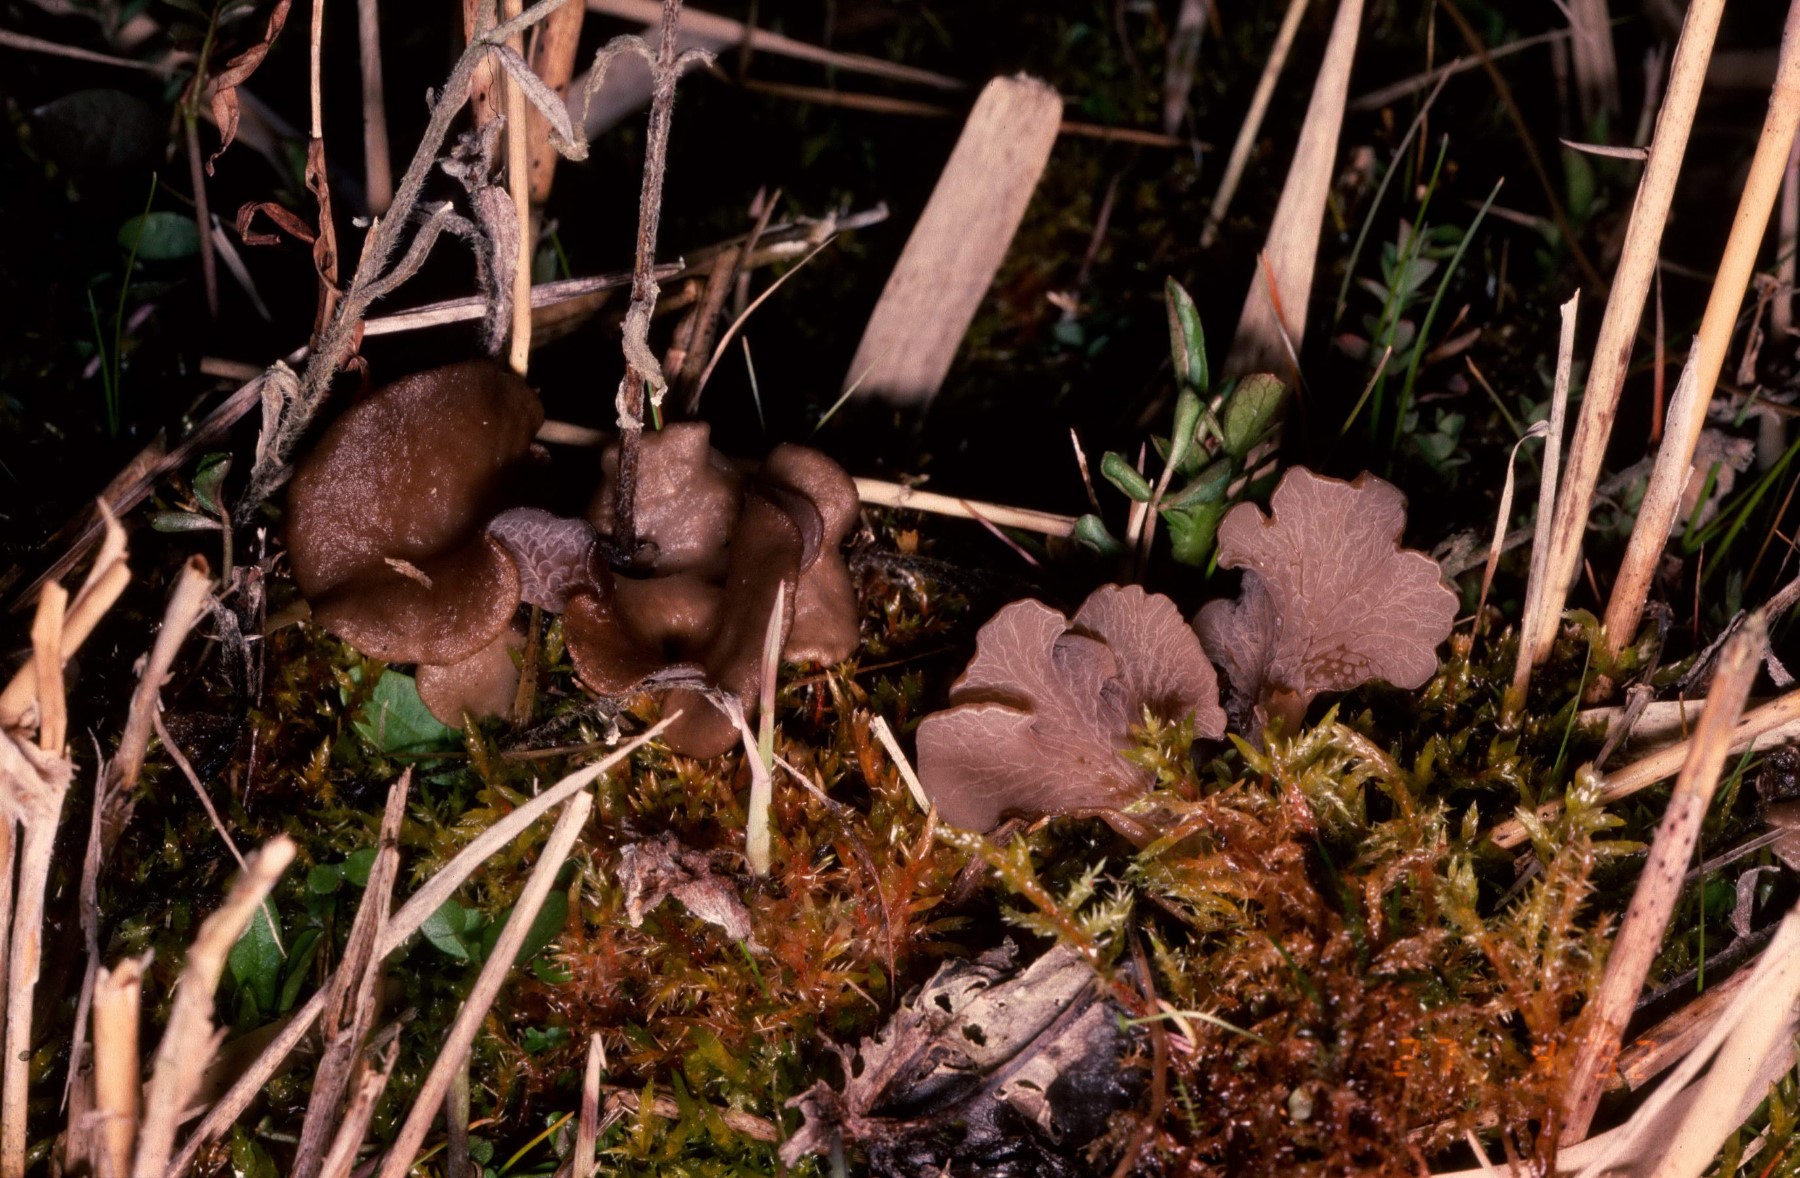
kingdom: Fungi
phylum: Basidiomycota
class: Agaricomycetes
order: Agaricales
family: Hygrophoraceae
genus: Arrhenia
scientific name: Arrhenia lobata
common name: siddende fontænehat
